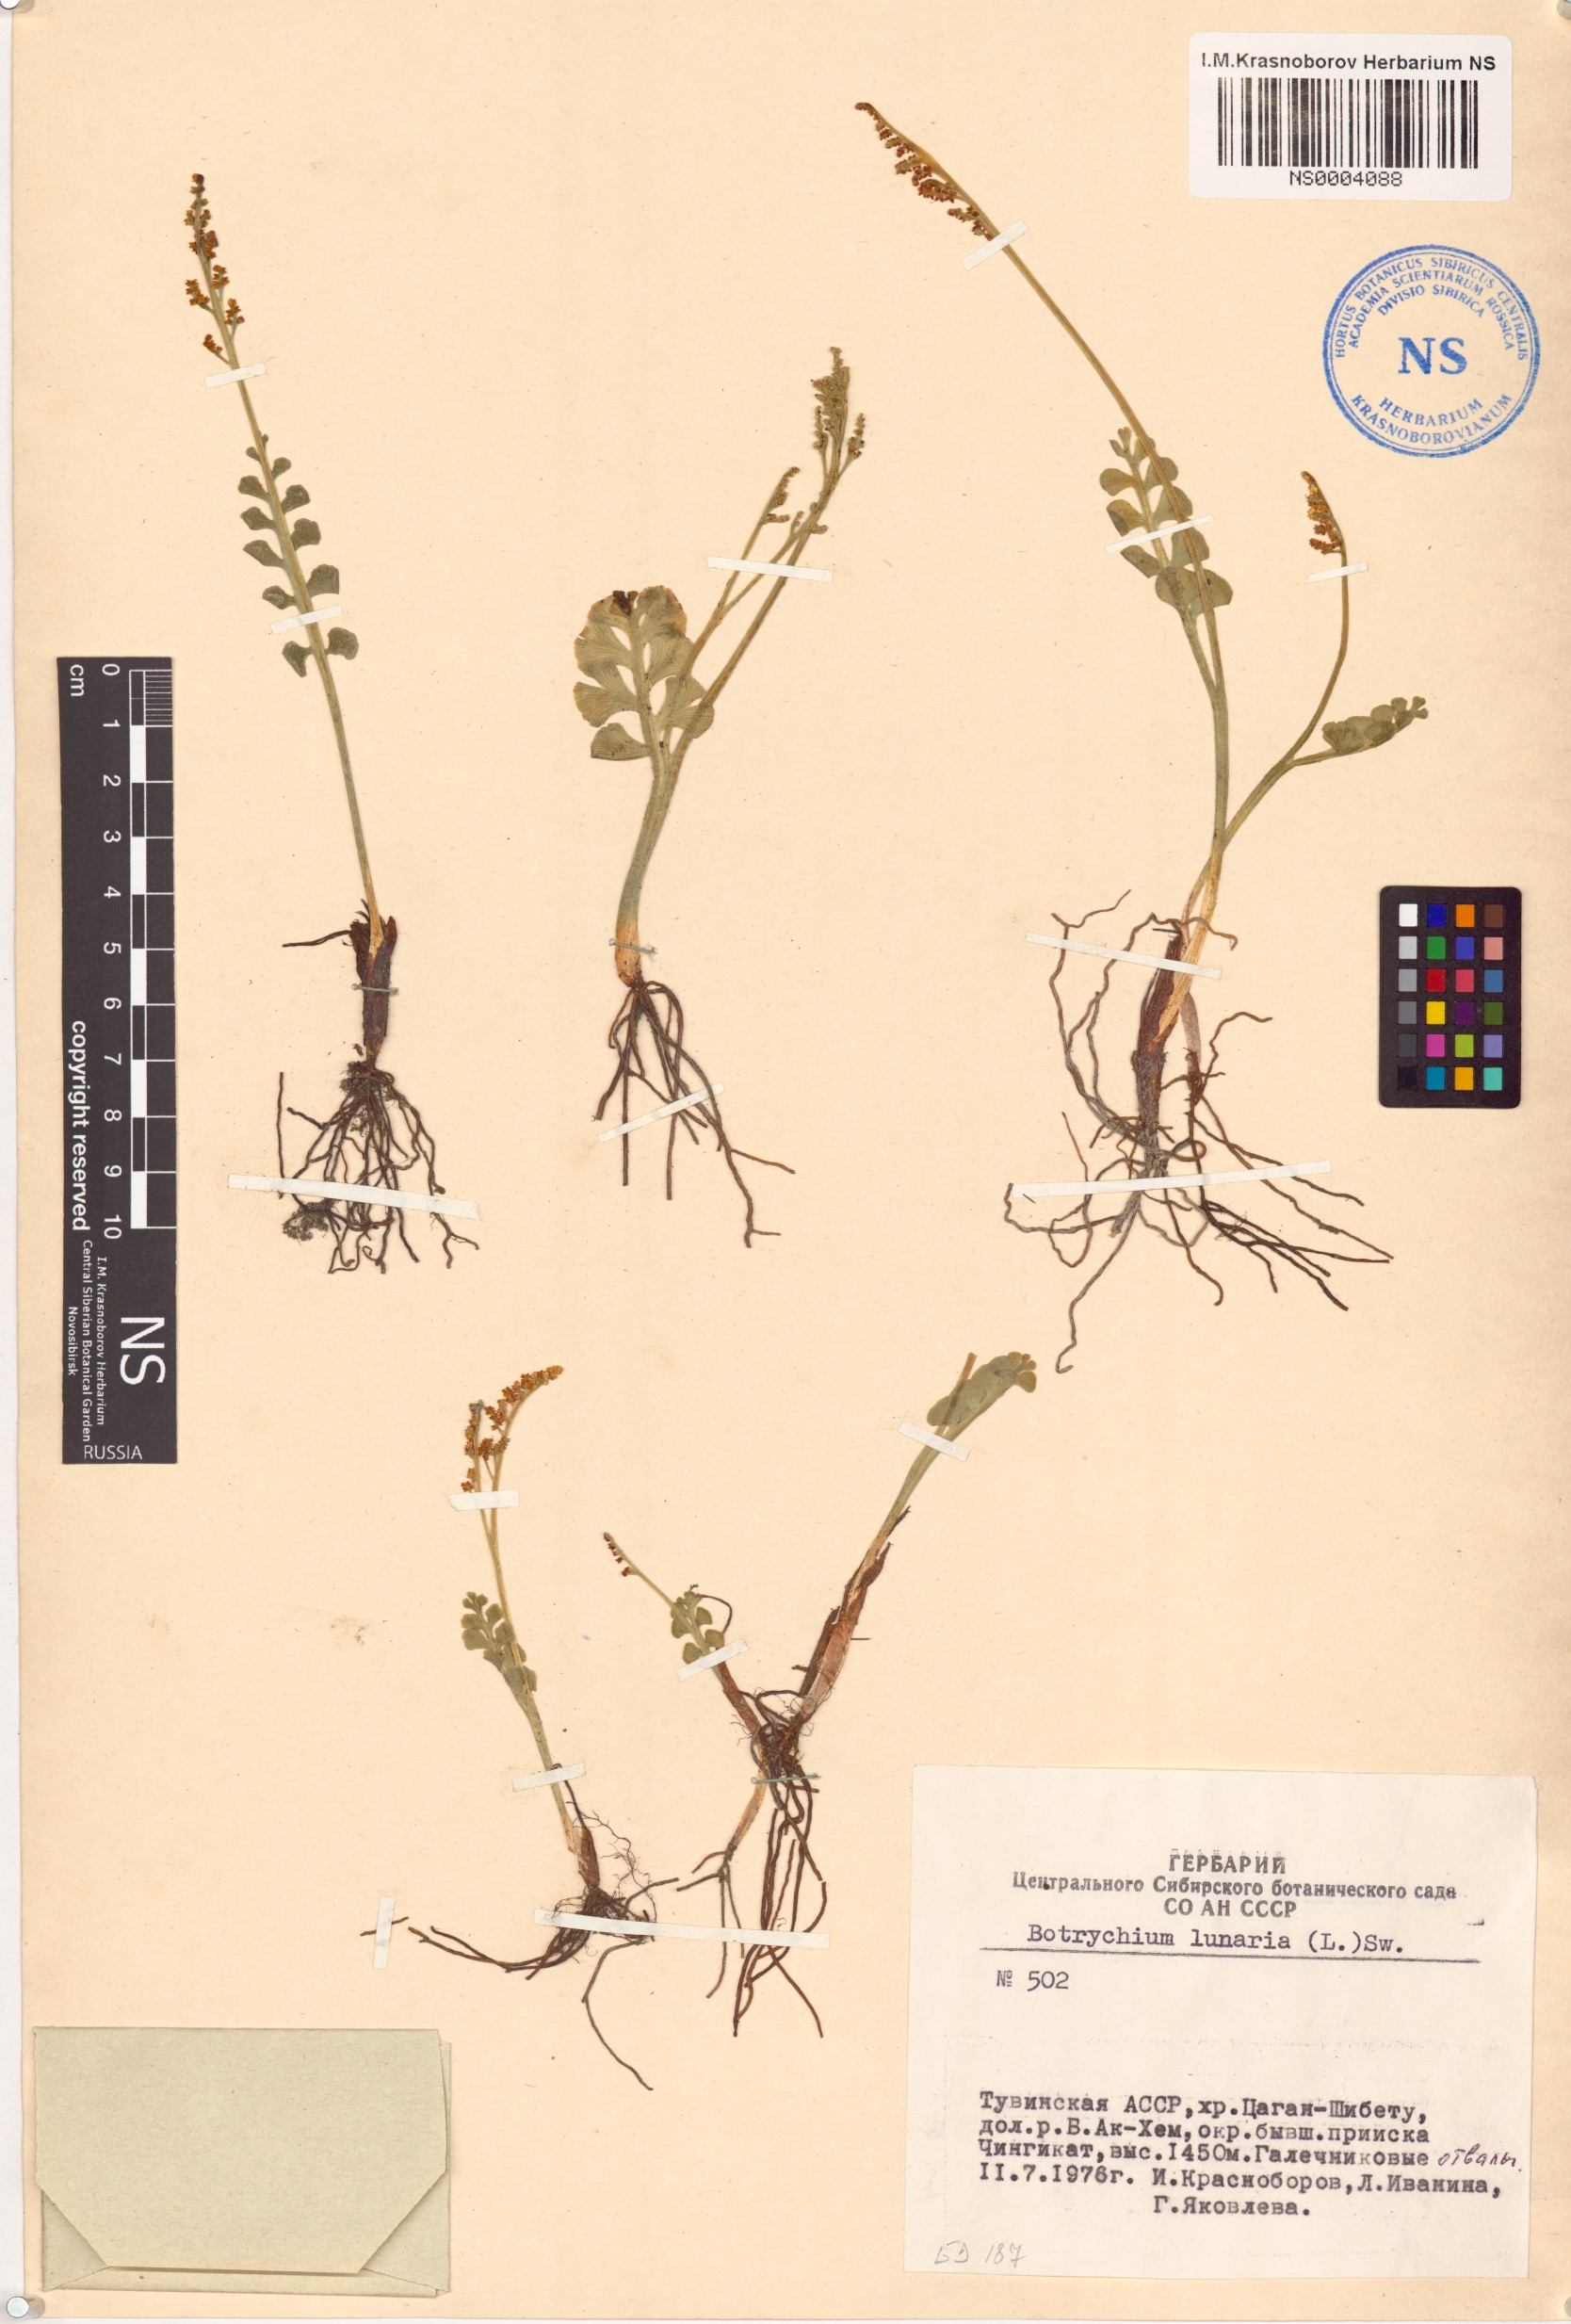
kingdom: Plantae
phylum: Tracheophyta
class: Polypodiopsida
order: Ophioglossales
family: Ophioglossaceae
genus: Botrychium
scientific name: Botrychium lunaria
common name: Moonwort
